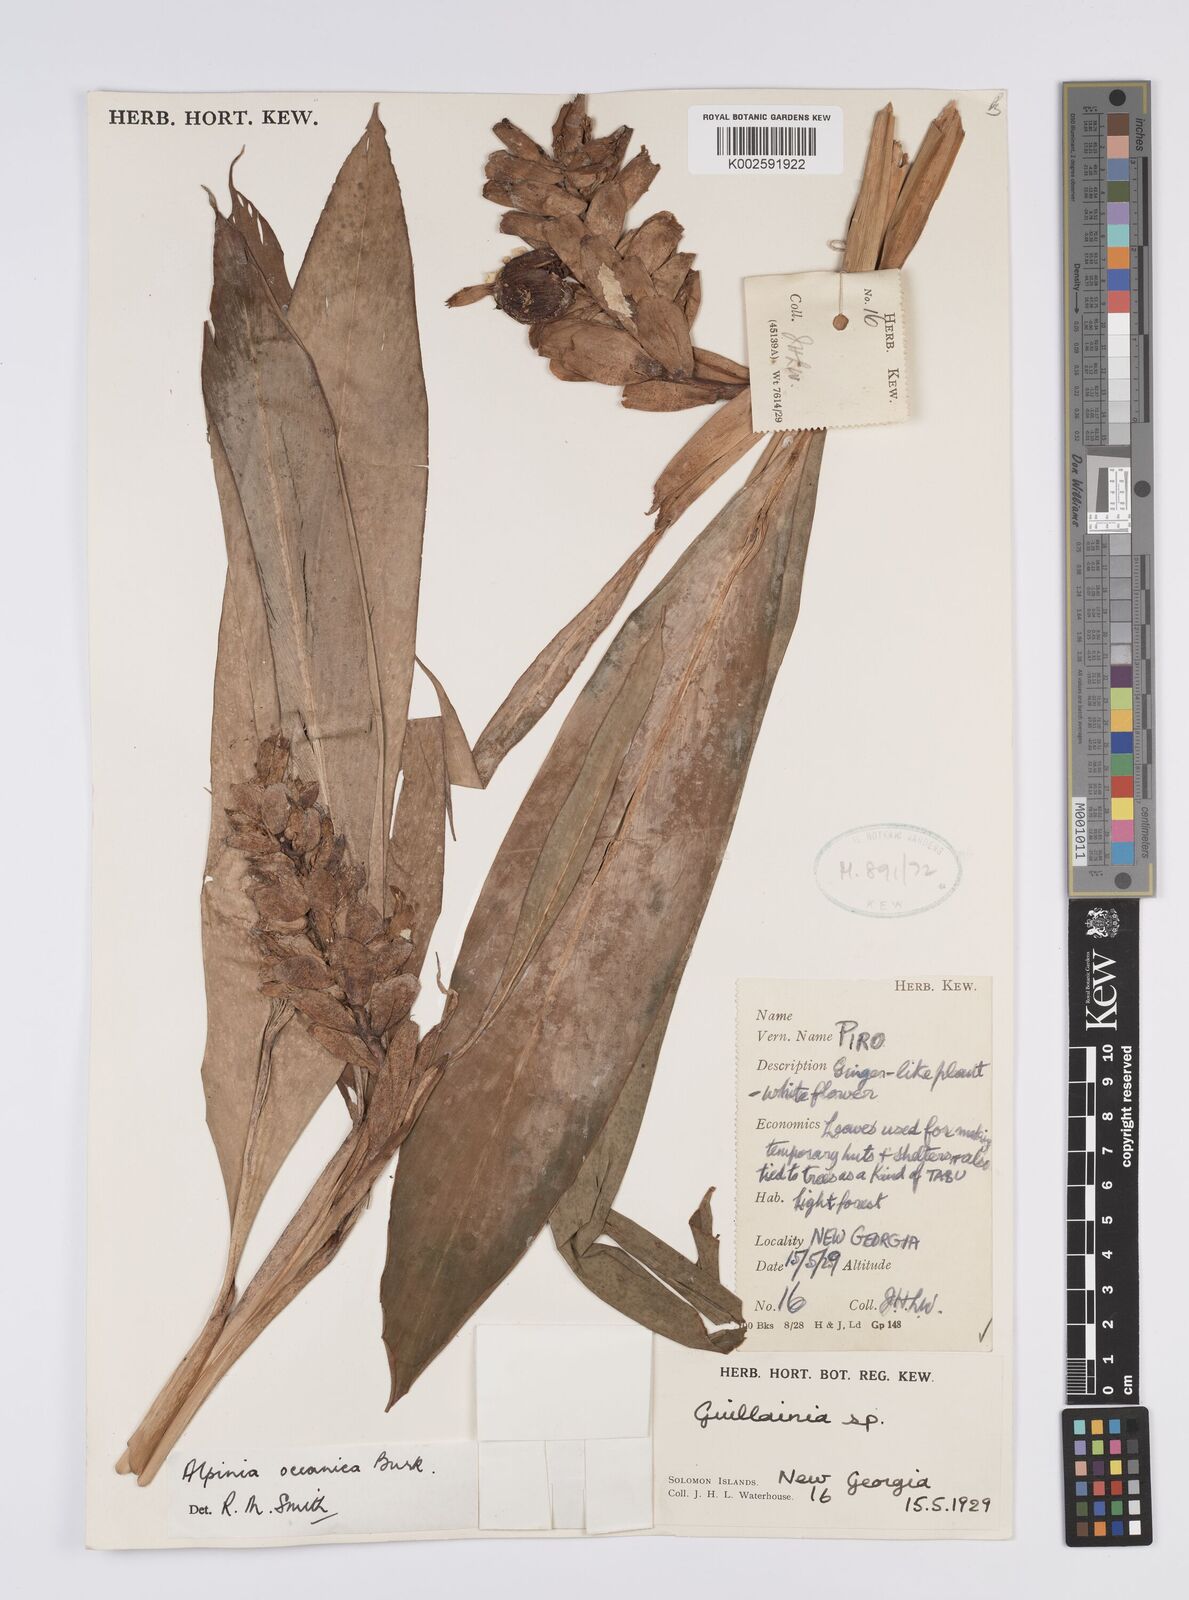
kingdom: Plantae
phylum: Tracheophyta
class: Liliopsida
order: Zingiberales
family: Zingiberaceae
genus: Alpinia
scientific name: Alpinia oceanica
